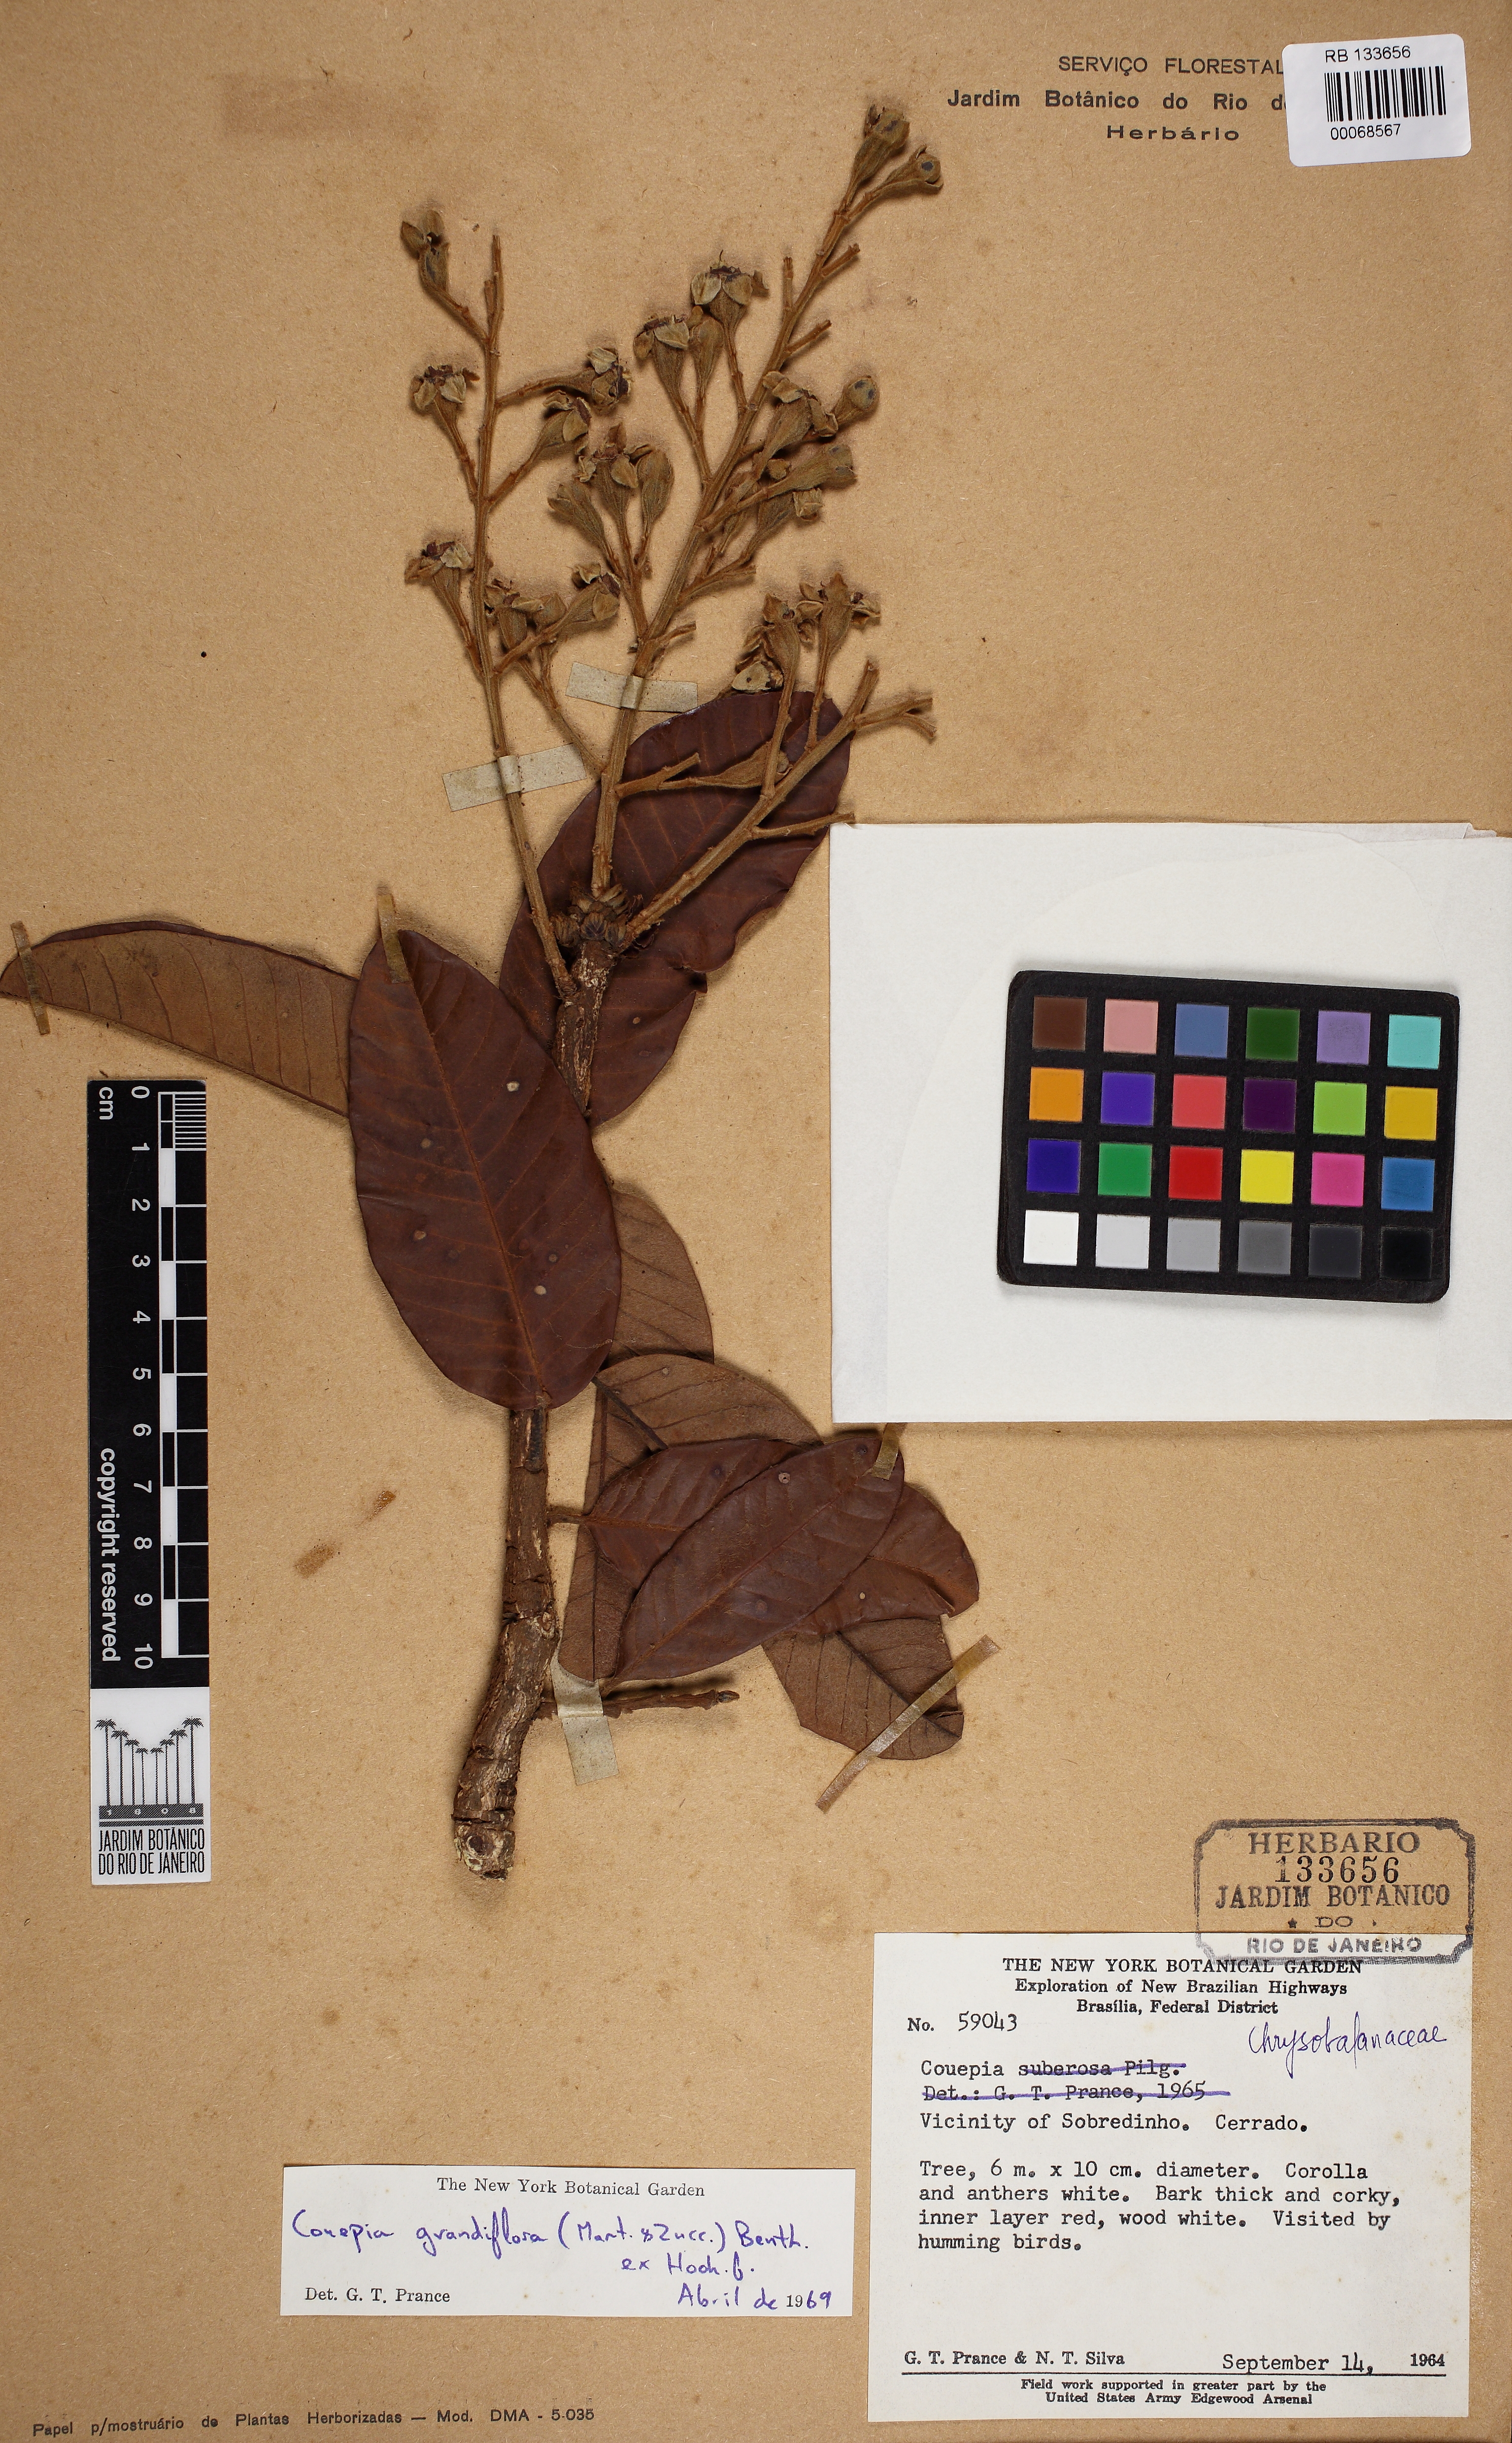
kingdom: Plantae
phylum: Tracheophyta
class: Magnoliopsida
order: Malpighiales
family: Chrysobalanaceae
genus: Couepia
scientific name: Couepia grandiflora
